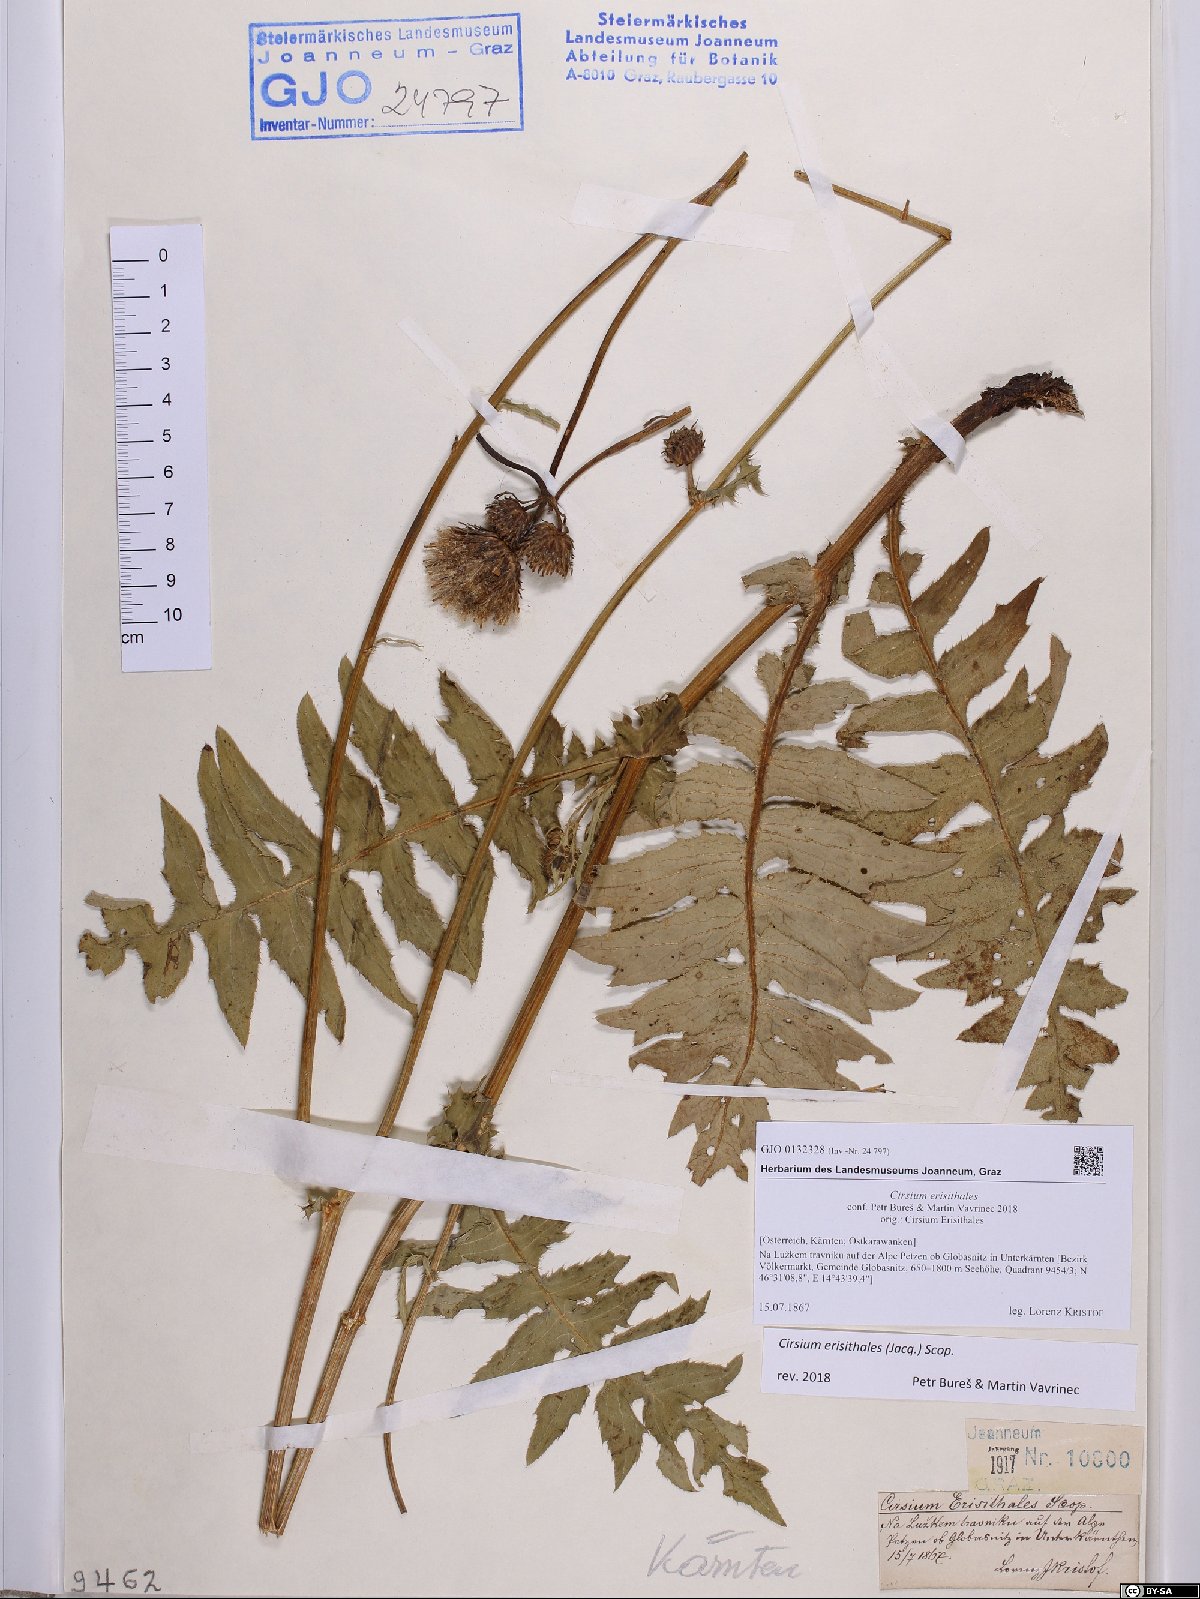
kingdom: Plantae
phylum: Tracheophyta
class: Magnoliopsida
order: Asterales
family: Asteraceae
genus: Cirsium
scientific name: Cirsium erisithales
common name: Yellow thistle
